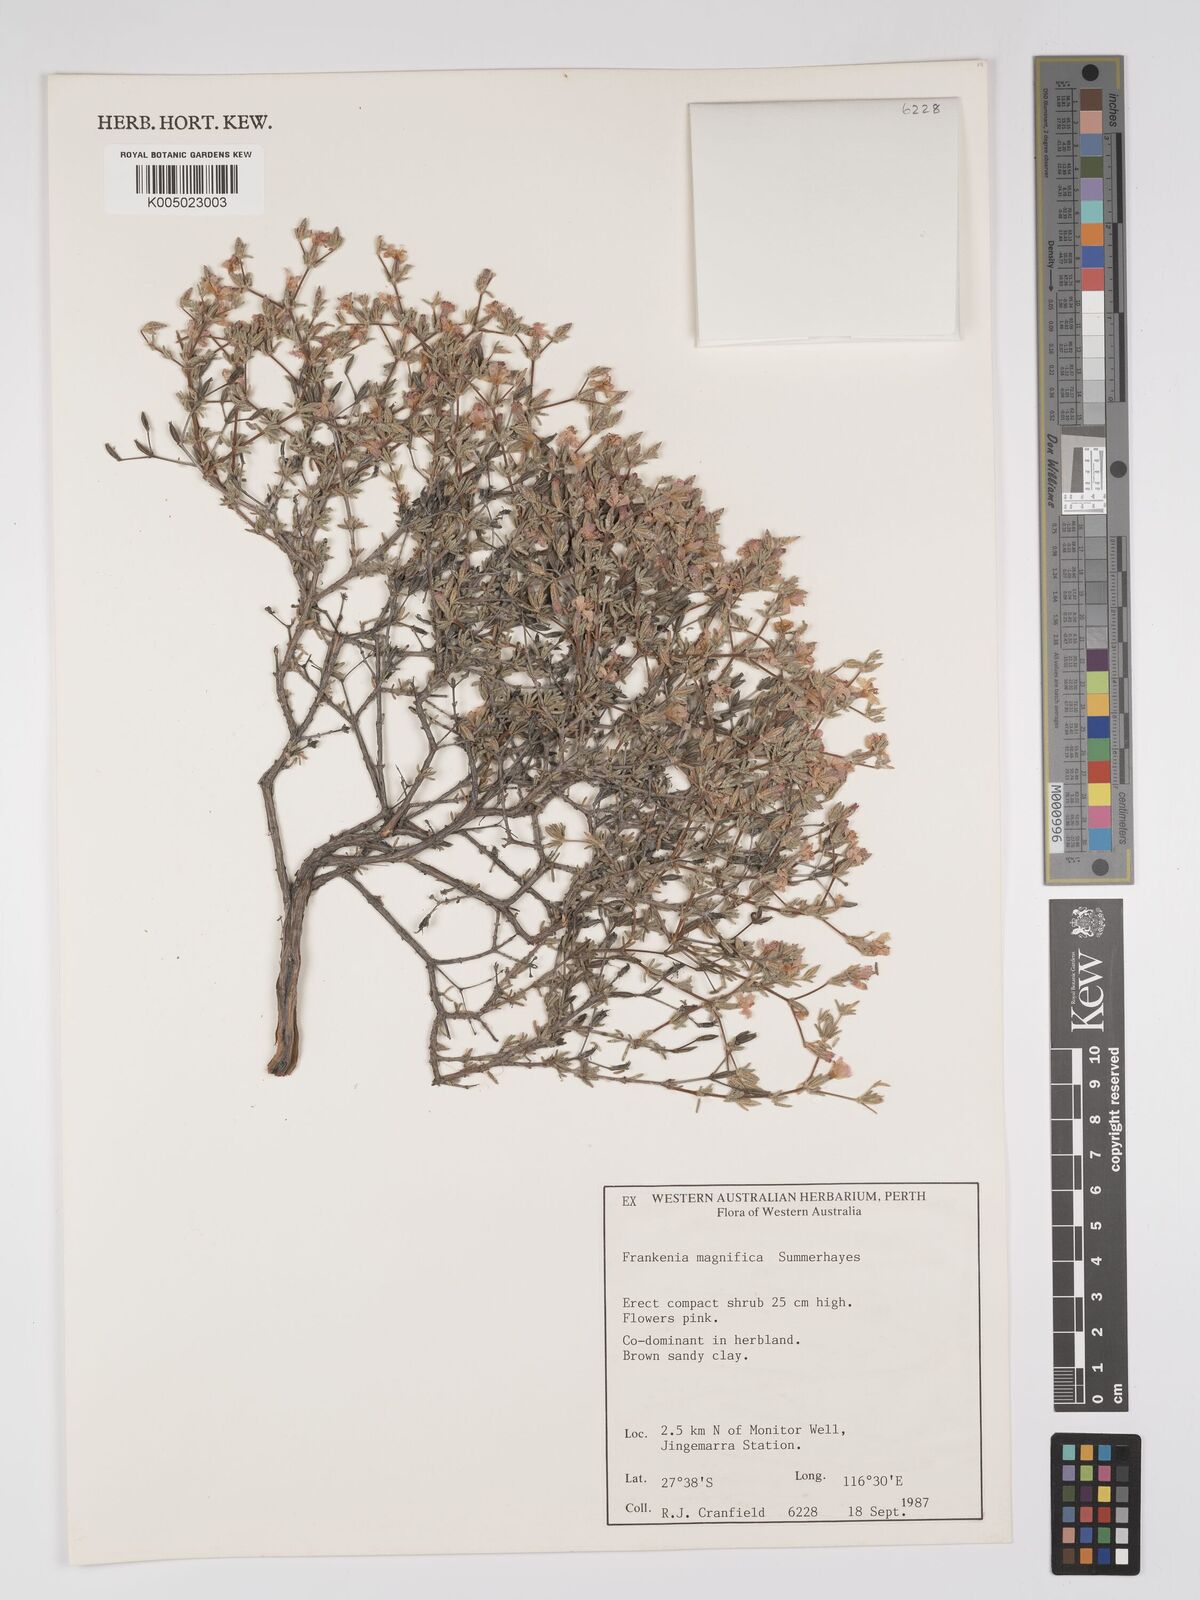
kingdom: Plantae
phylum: Tracheophyta
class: Magnoliopsida
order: Caryophyllales
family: Frankeniaceae
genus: Frankenia
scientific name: Frankenia magnifica
